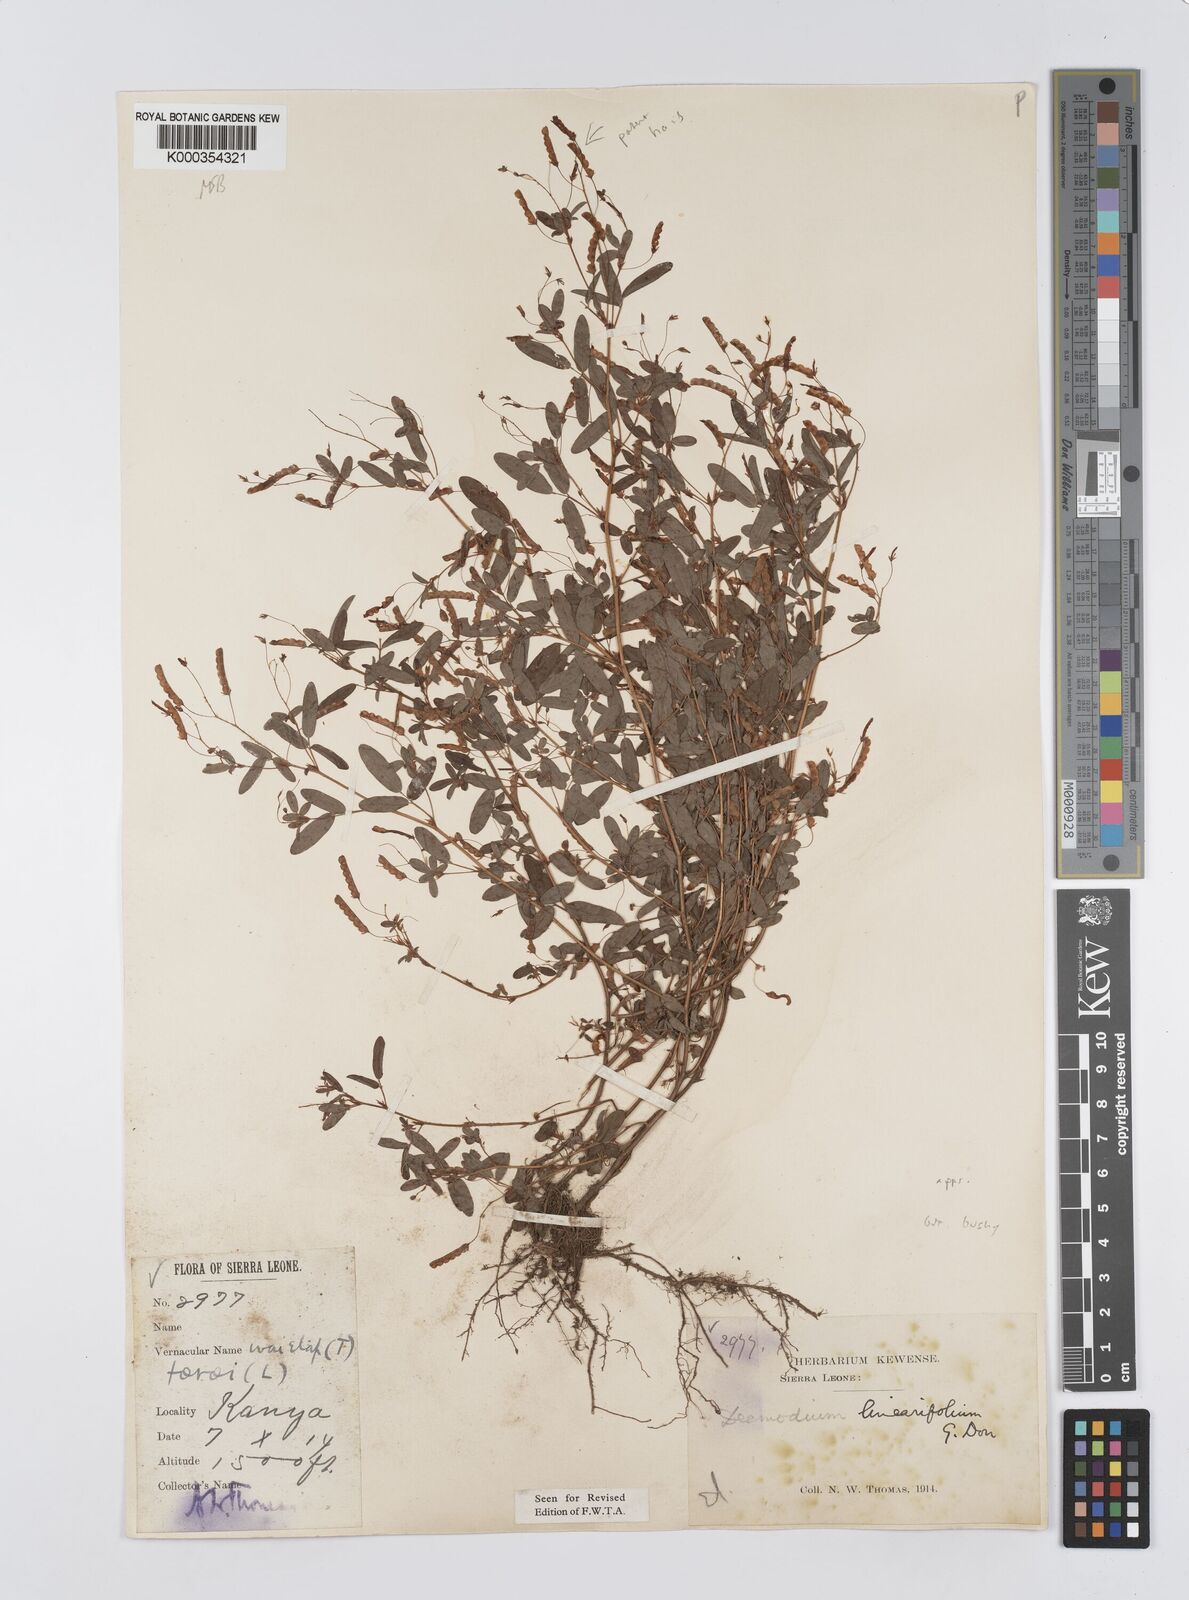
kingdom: Plantae
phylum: Tracheophyta
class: Magnoliopsida
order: Fabales
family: Fabaceae
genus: Desmodium
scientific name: Desmodium linearifolium
